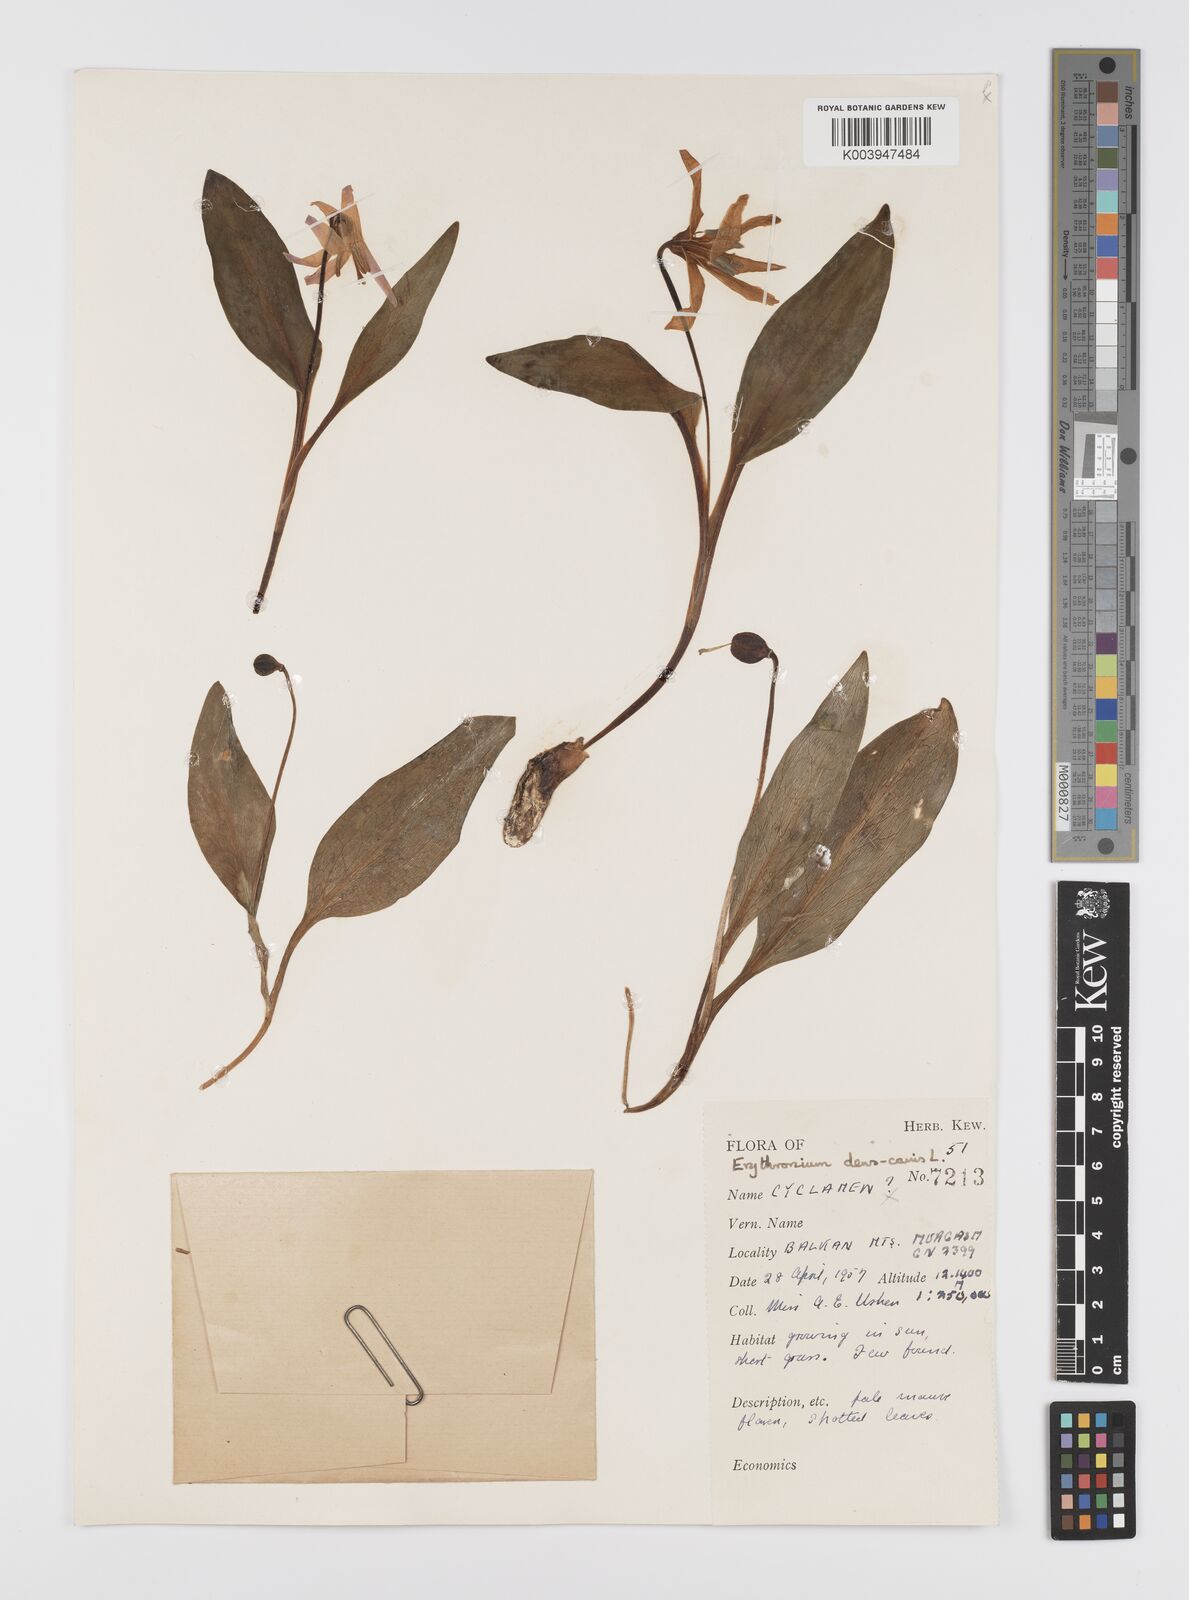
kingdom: Plantae
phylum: Tracheophyta
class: Liliopsida
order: Liliales
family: Liliaceae
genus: Erythronium
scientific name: Erythronium dens-canis
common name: Dog's-tooth-violet
